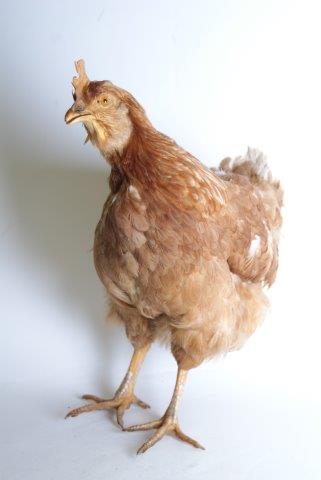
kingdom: Animalia
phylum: Chordata
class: Aves
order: Galliformes
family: Phasianidae
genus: Gallus
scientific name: Gallus gallus
